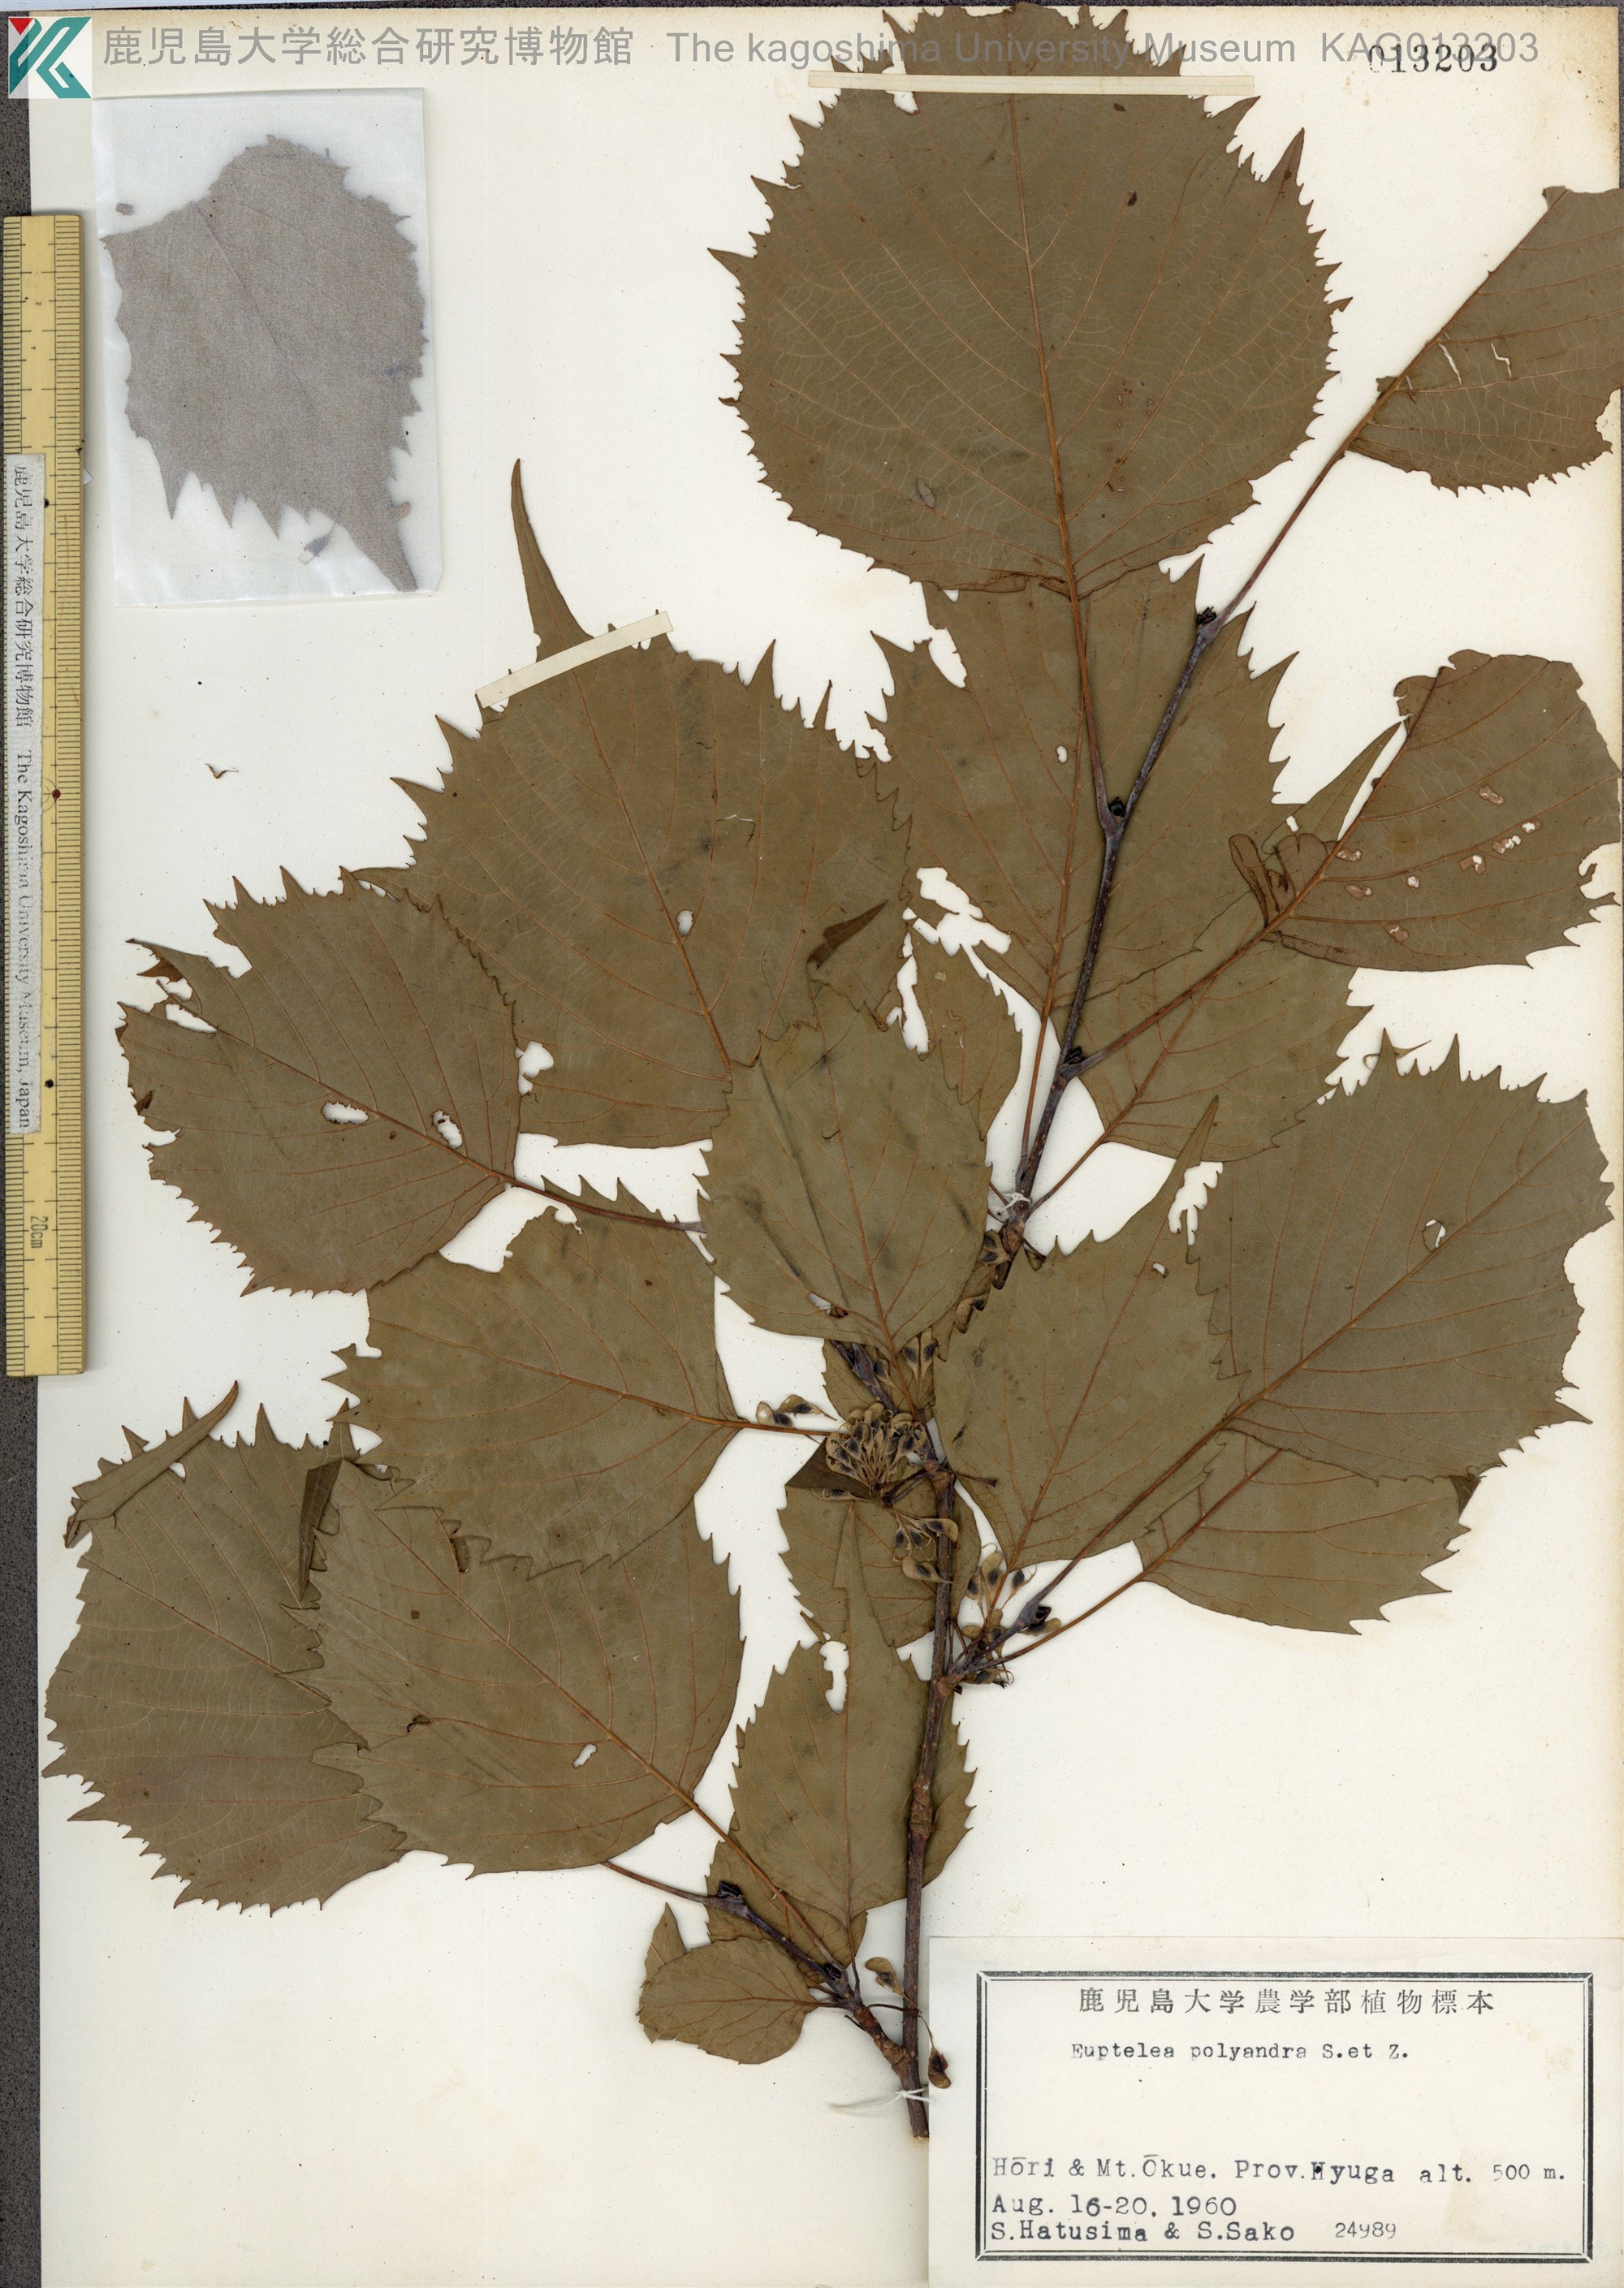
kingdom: Plantae
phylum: Tracheophyta
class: Magnoliopsida
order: Ranunculales
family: Eupteleaceae
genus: Euptelea
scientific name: Euptelea polyandra
